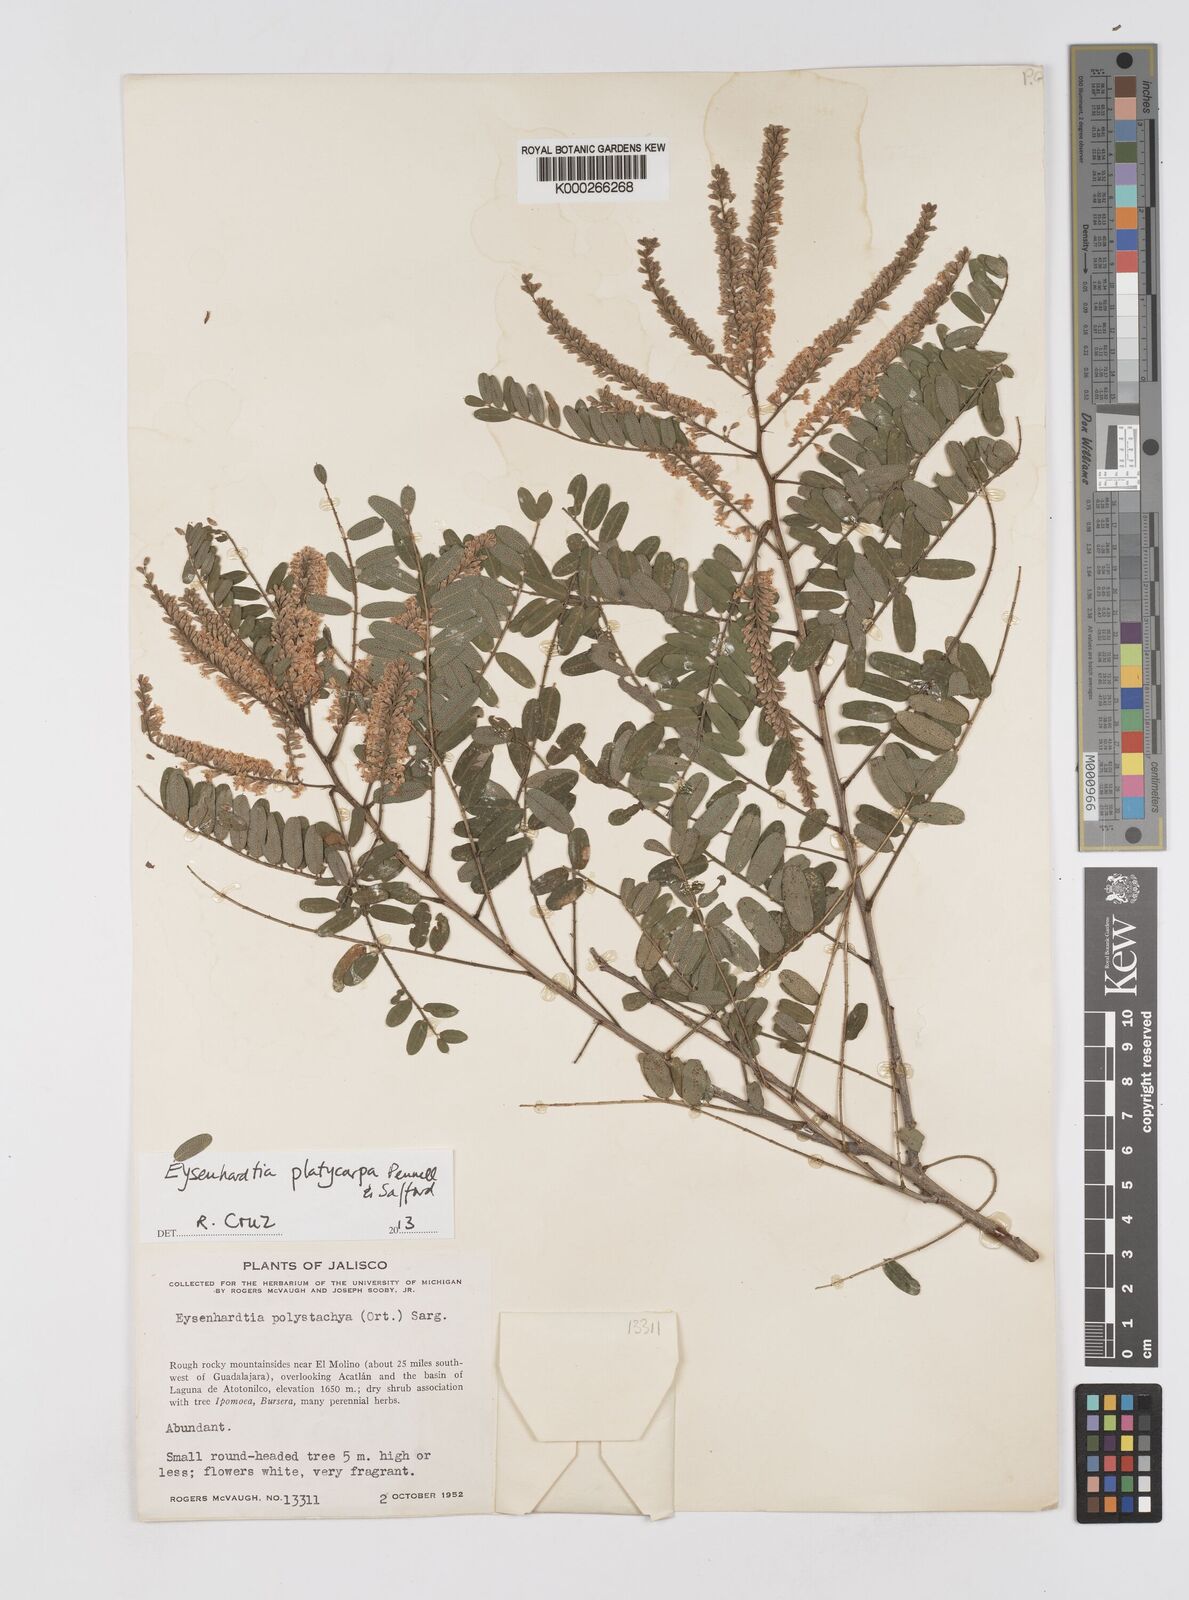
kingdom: Plantae
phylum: Tracheophyta
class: Magnoliopsida
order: Fabales
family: Fabaceae
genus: Eysenhardtia
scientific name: Eysenhardtia platycarpa
